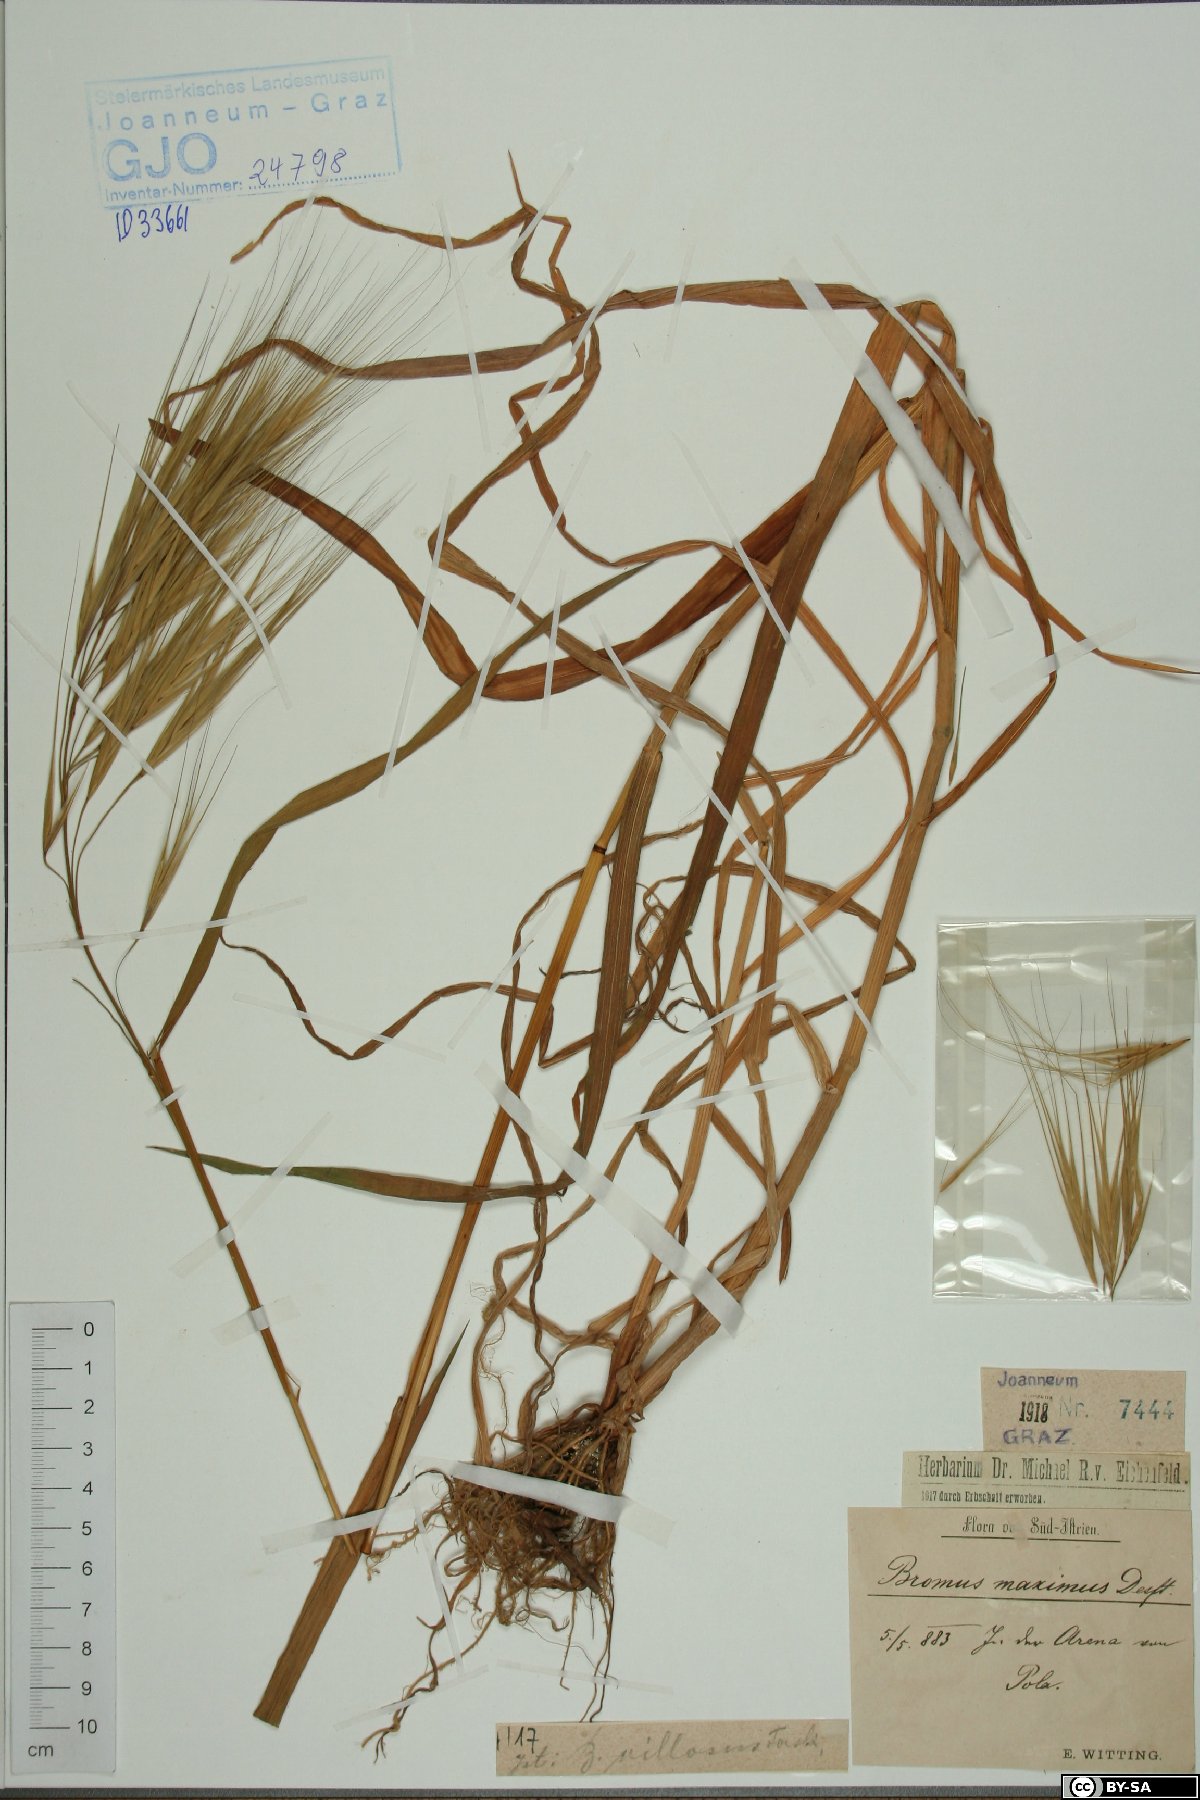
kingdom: Plantae
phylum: Tracheophyta
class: Liliopsida
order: Poales
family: Poaceae
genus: Bromus
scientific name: Bromus rigidus
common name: Ripgut brome
